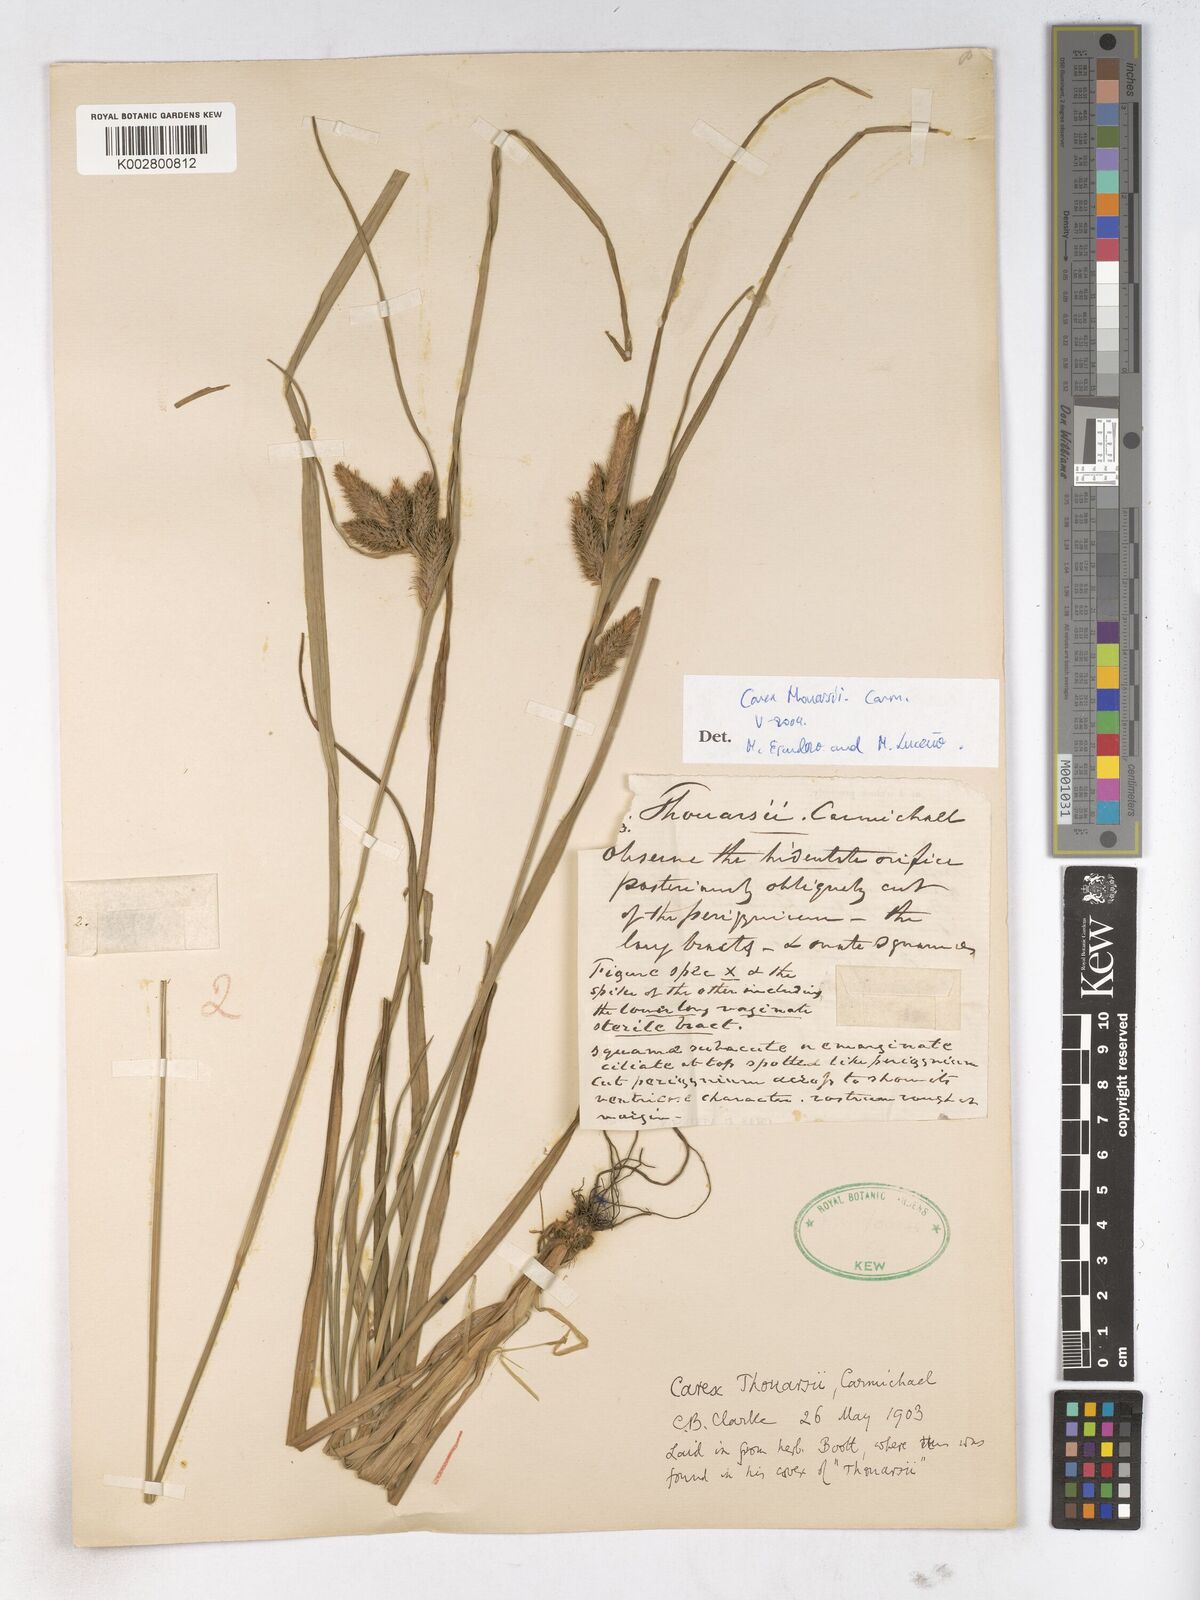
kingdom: Plantae
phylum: Tracheophyta
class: Liliopsida
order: Poales
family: Cyperaceae
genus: Carex
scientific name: Carex thouarsii
